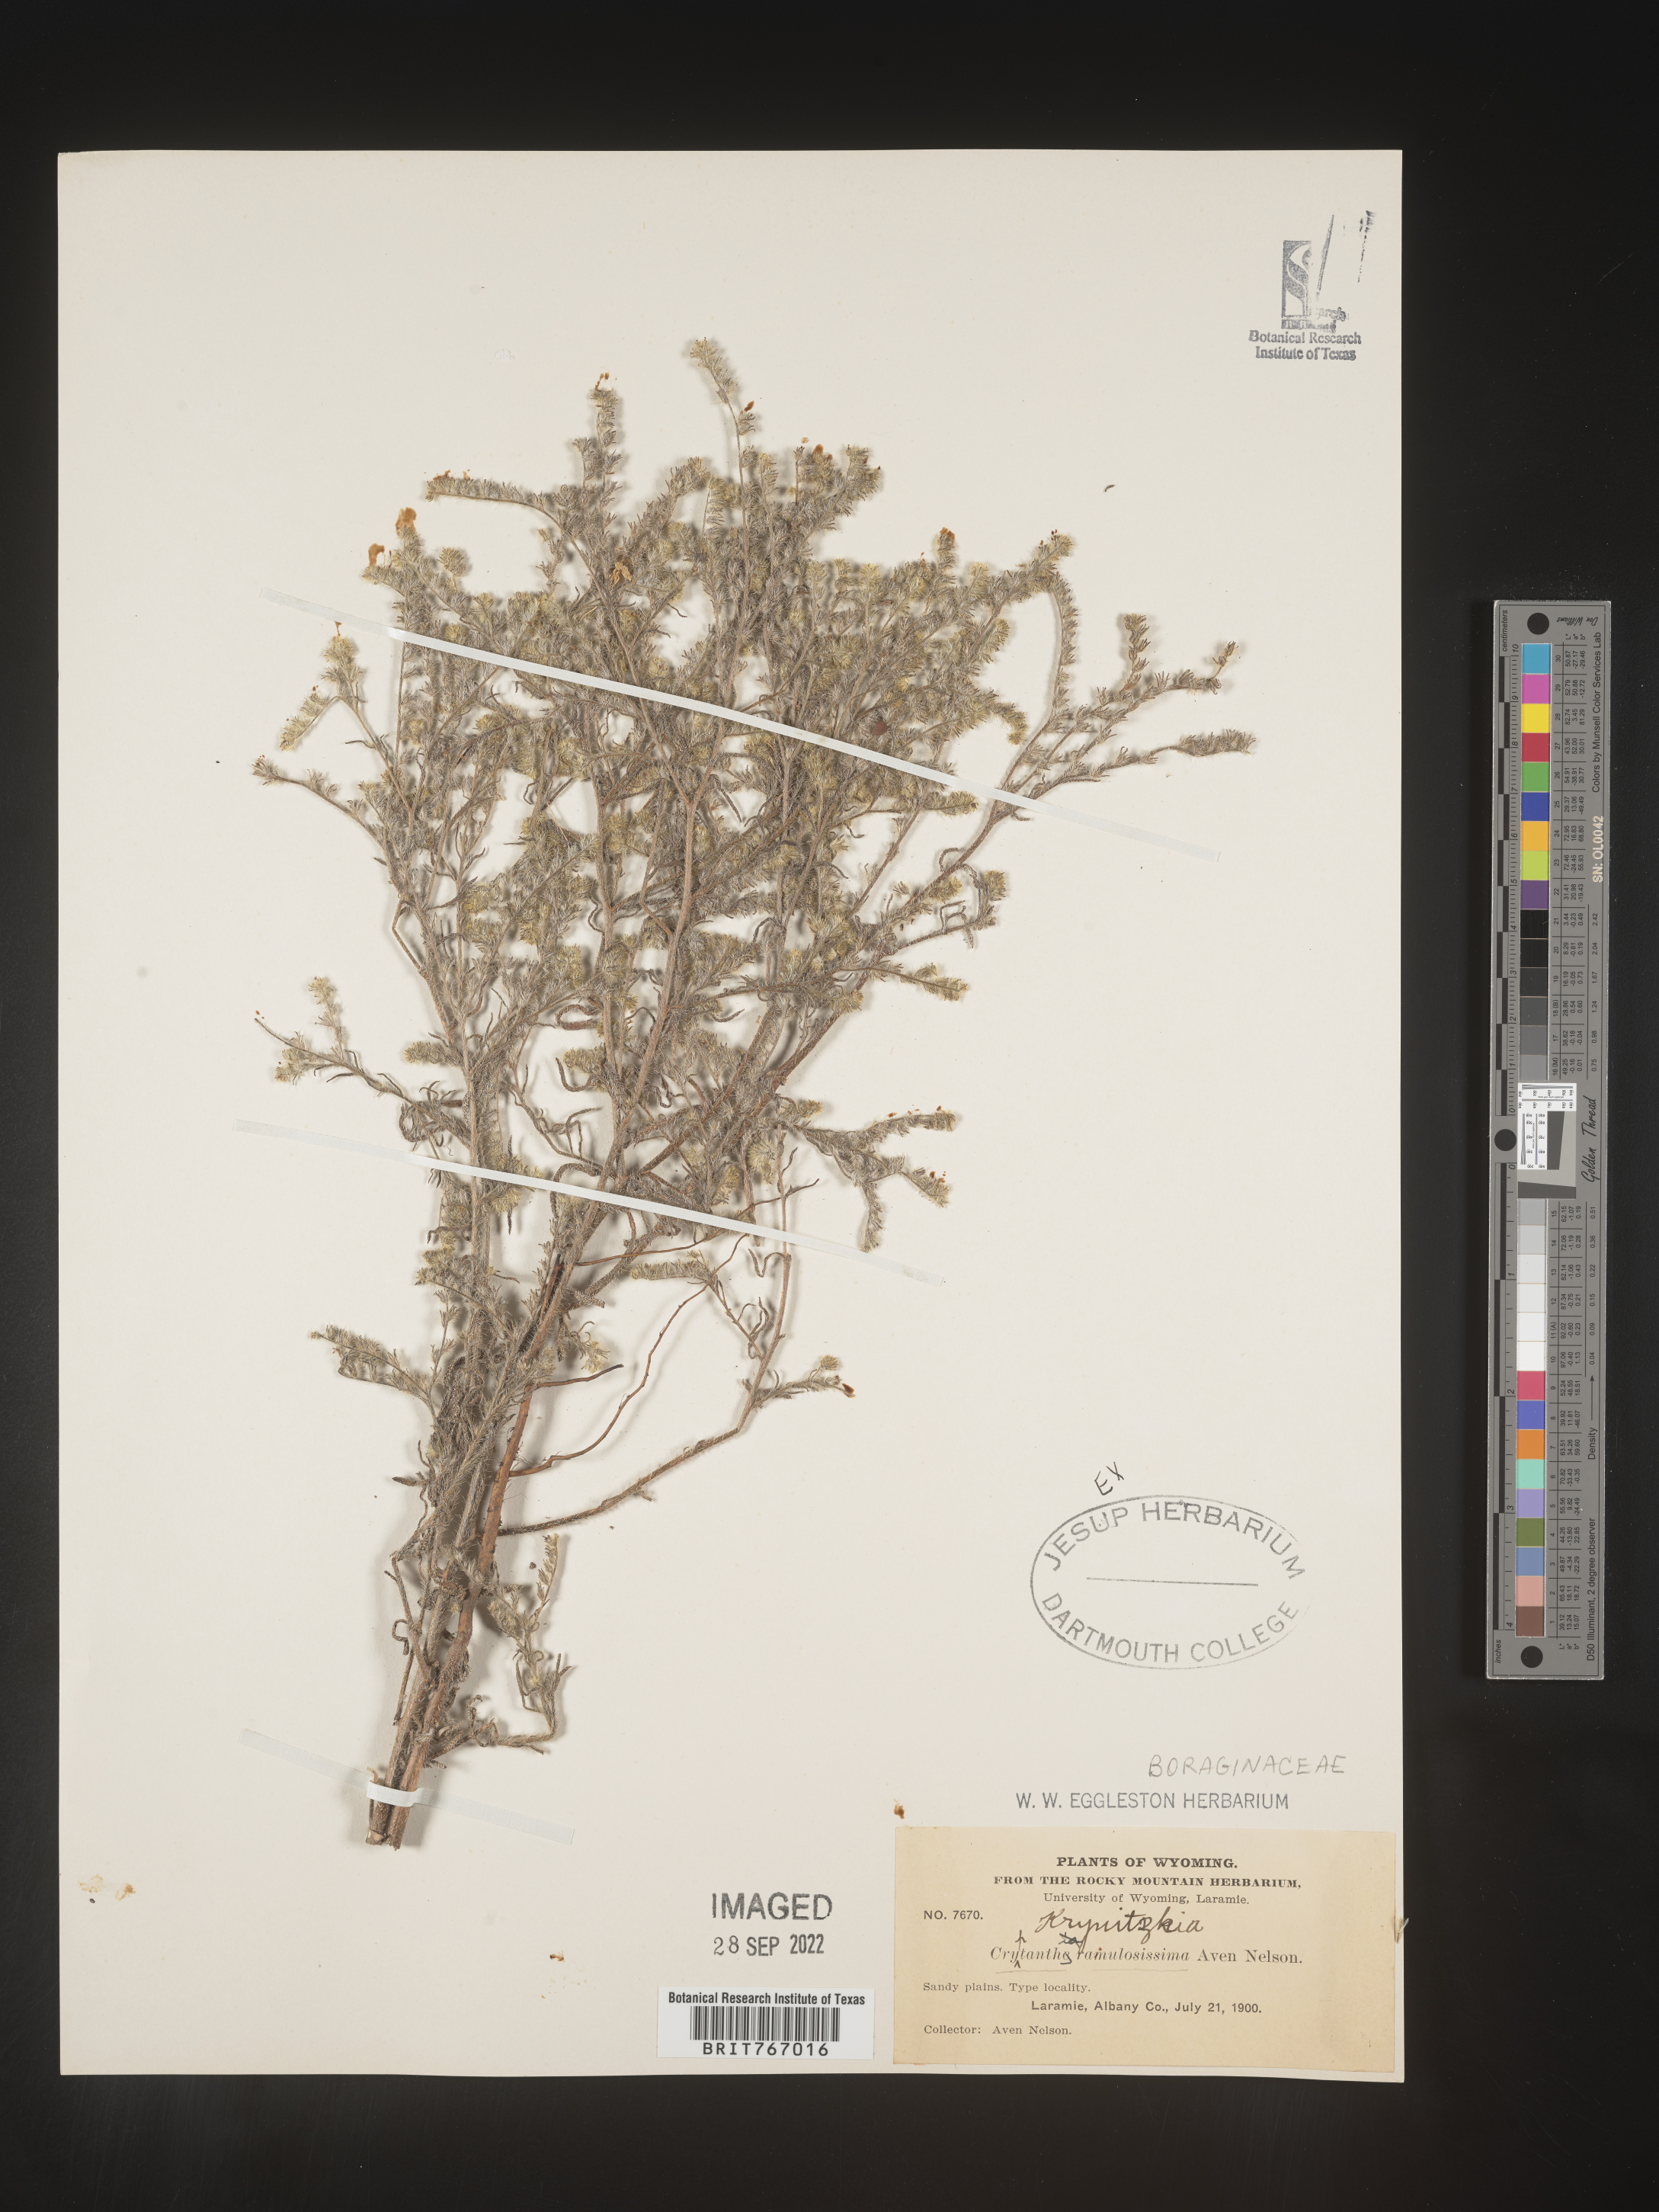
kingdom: Plantae
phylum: Tracheophyta
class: Magnoliopsida
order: Boraginales
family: Boraginaceae
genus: Cryptantha
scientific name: Cryptantha
